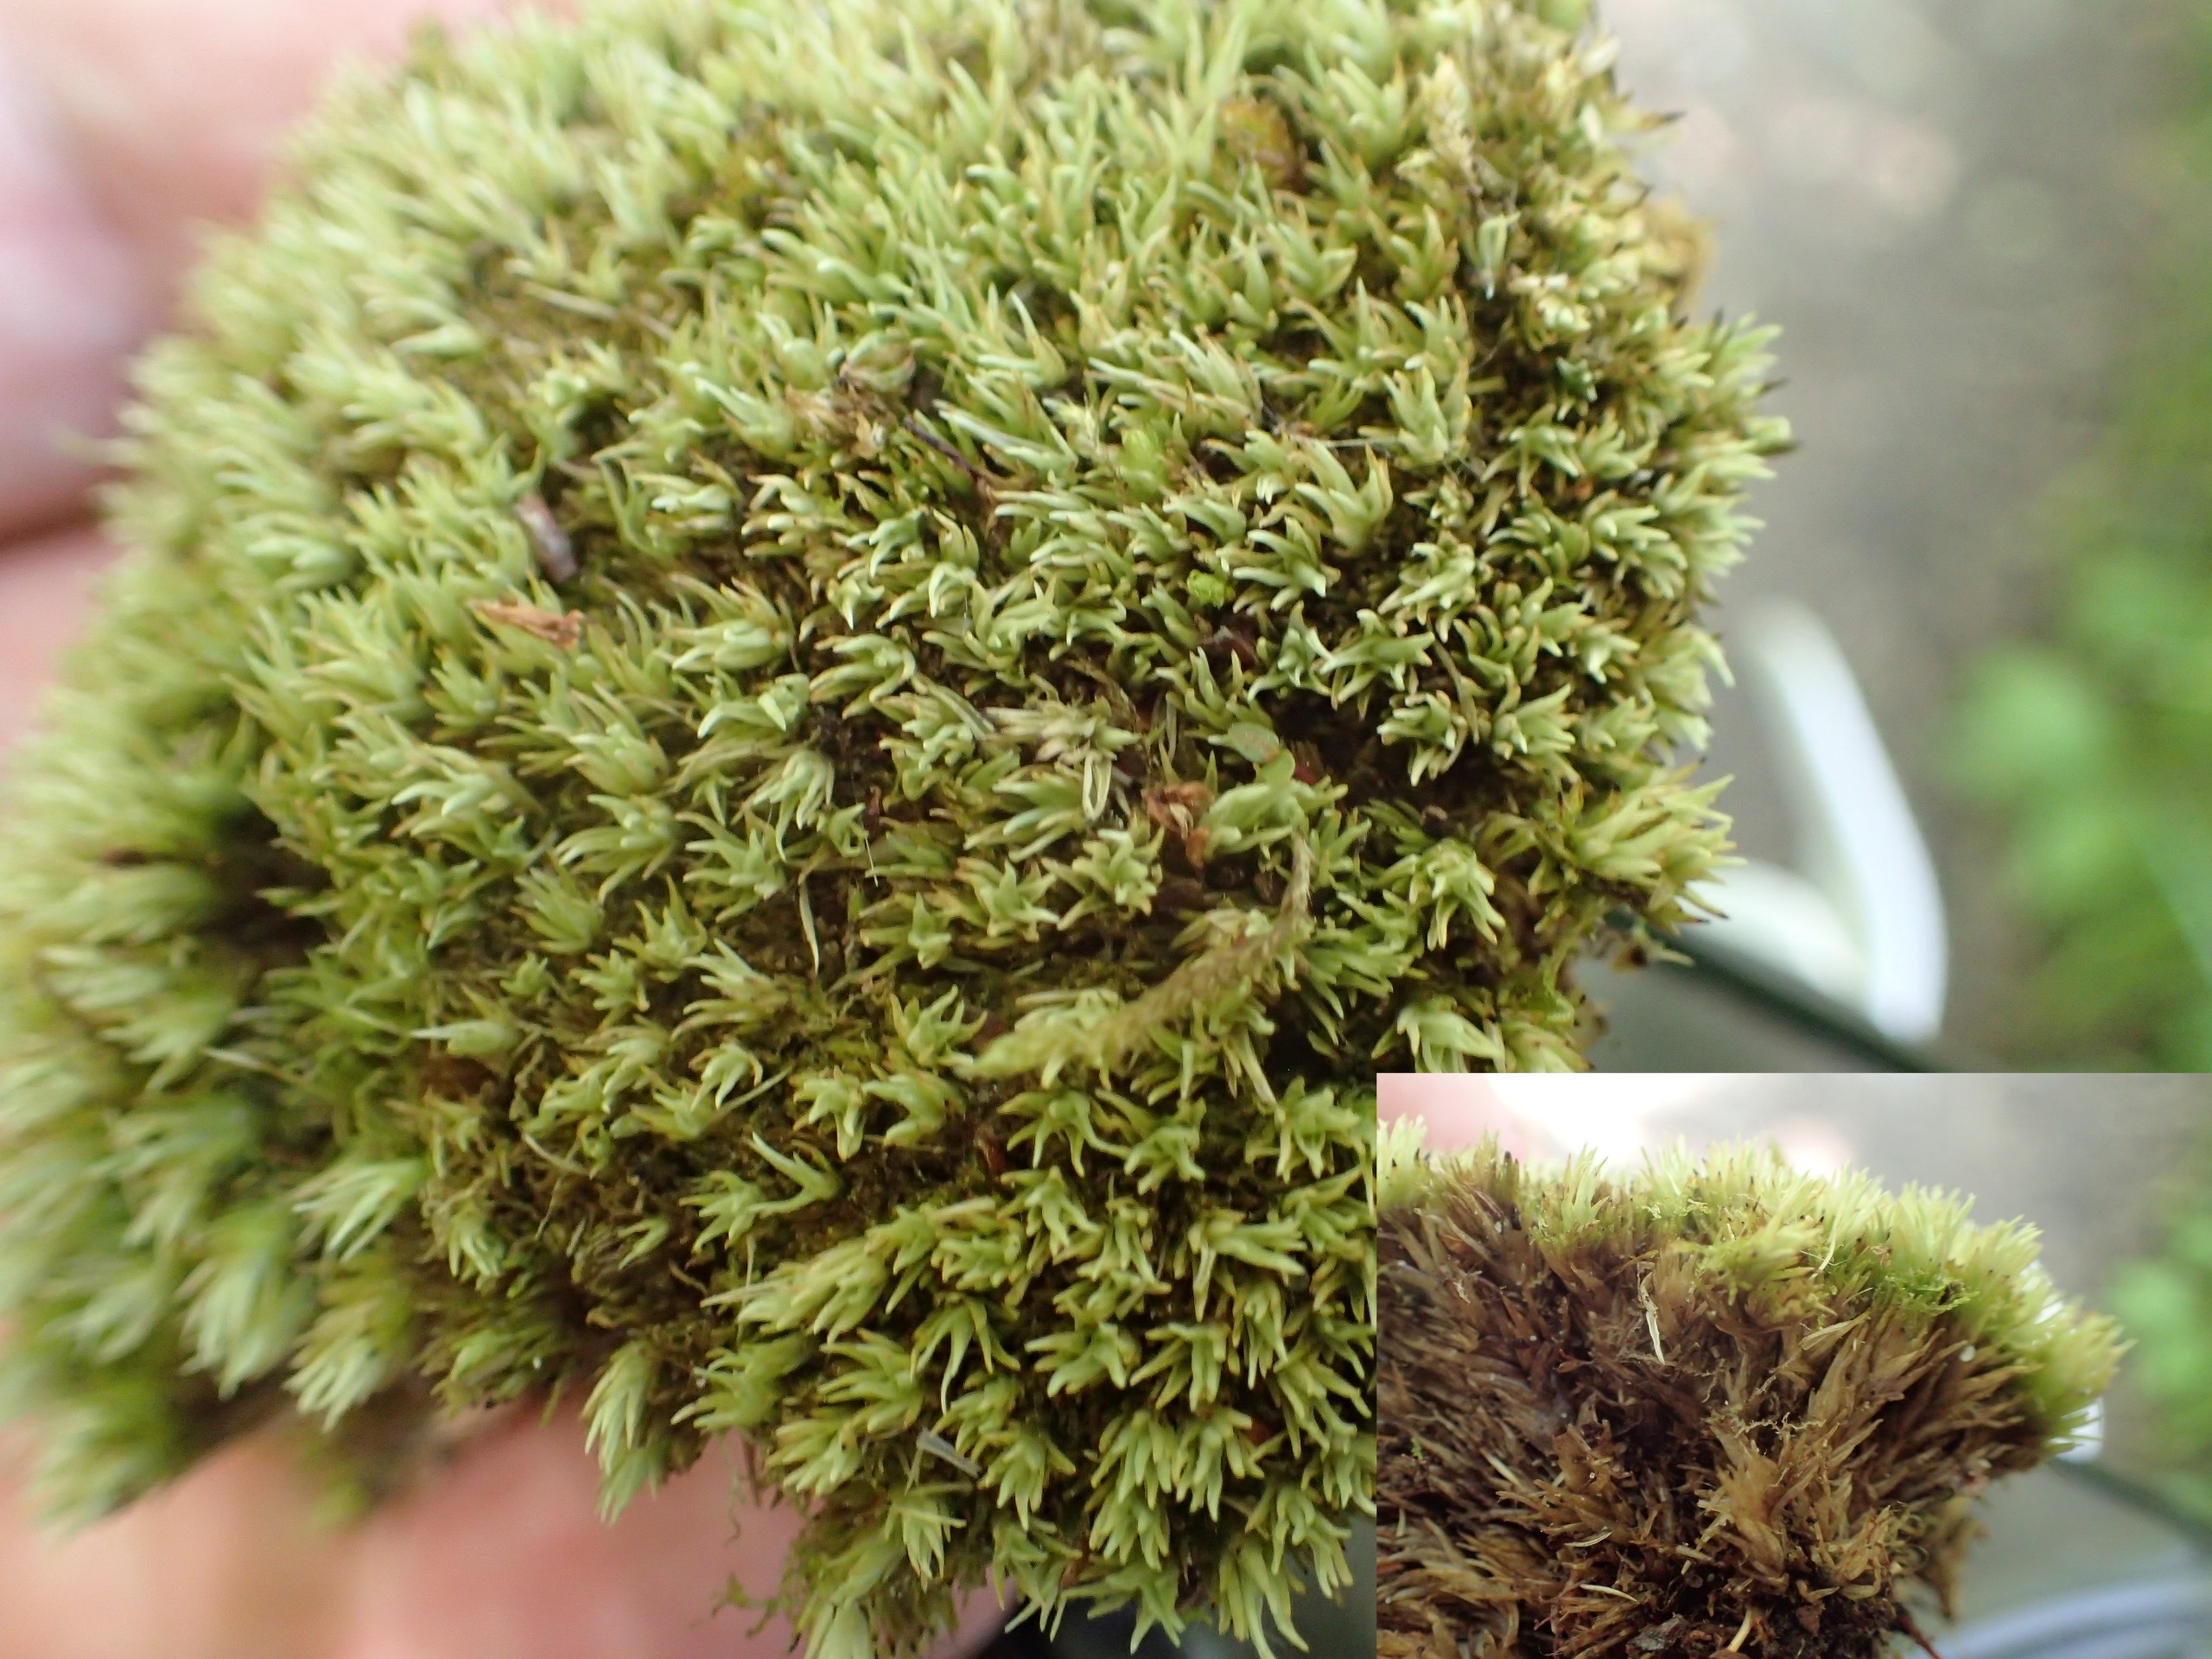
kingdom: Plantae
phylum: Bryophyta
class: Bryopsida
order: Dicranales
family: Leucobryaceae
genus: Leucobryum
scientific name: Leucobryum glaucum
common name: Almindelig hvidmos
